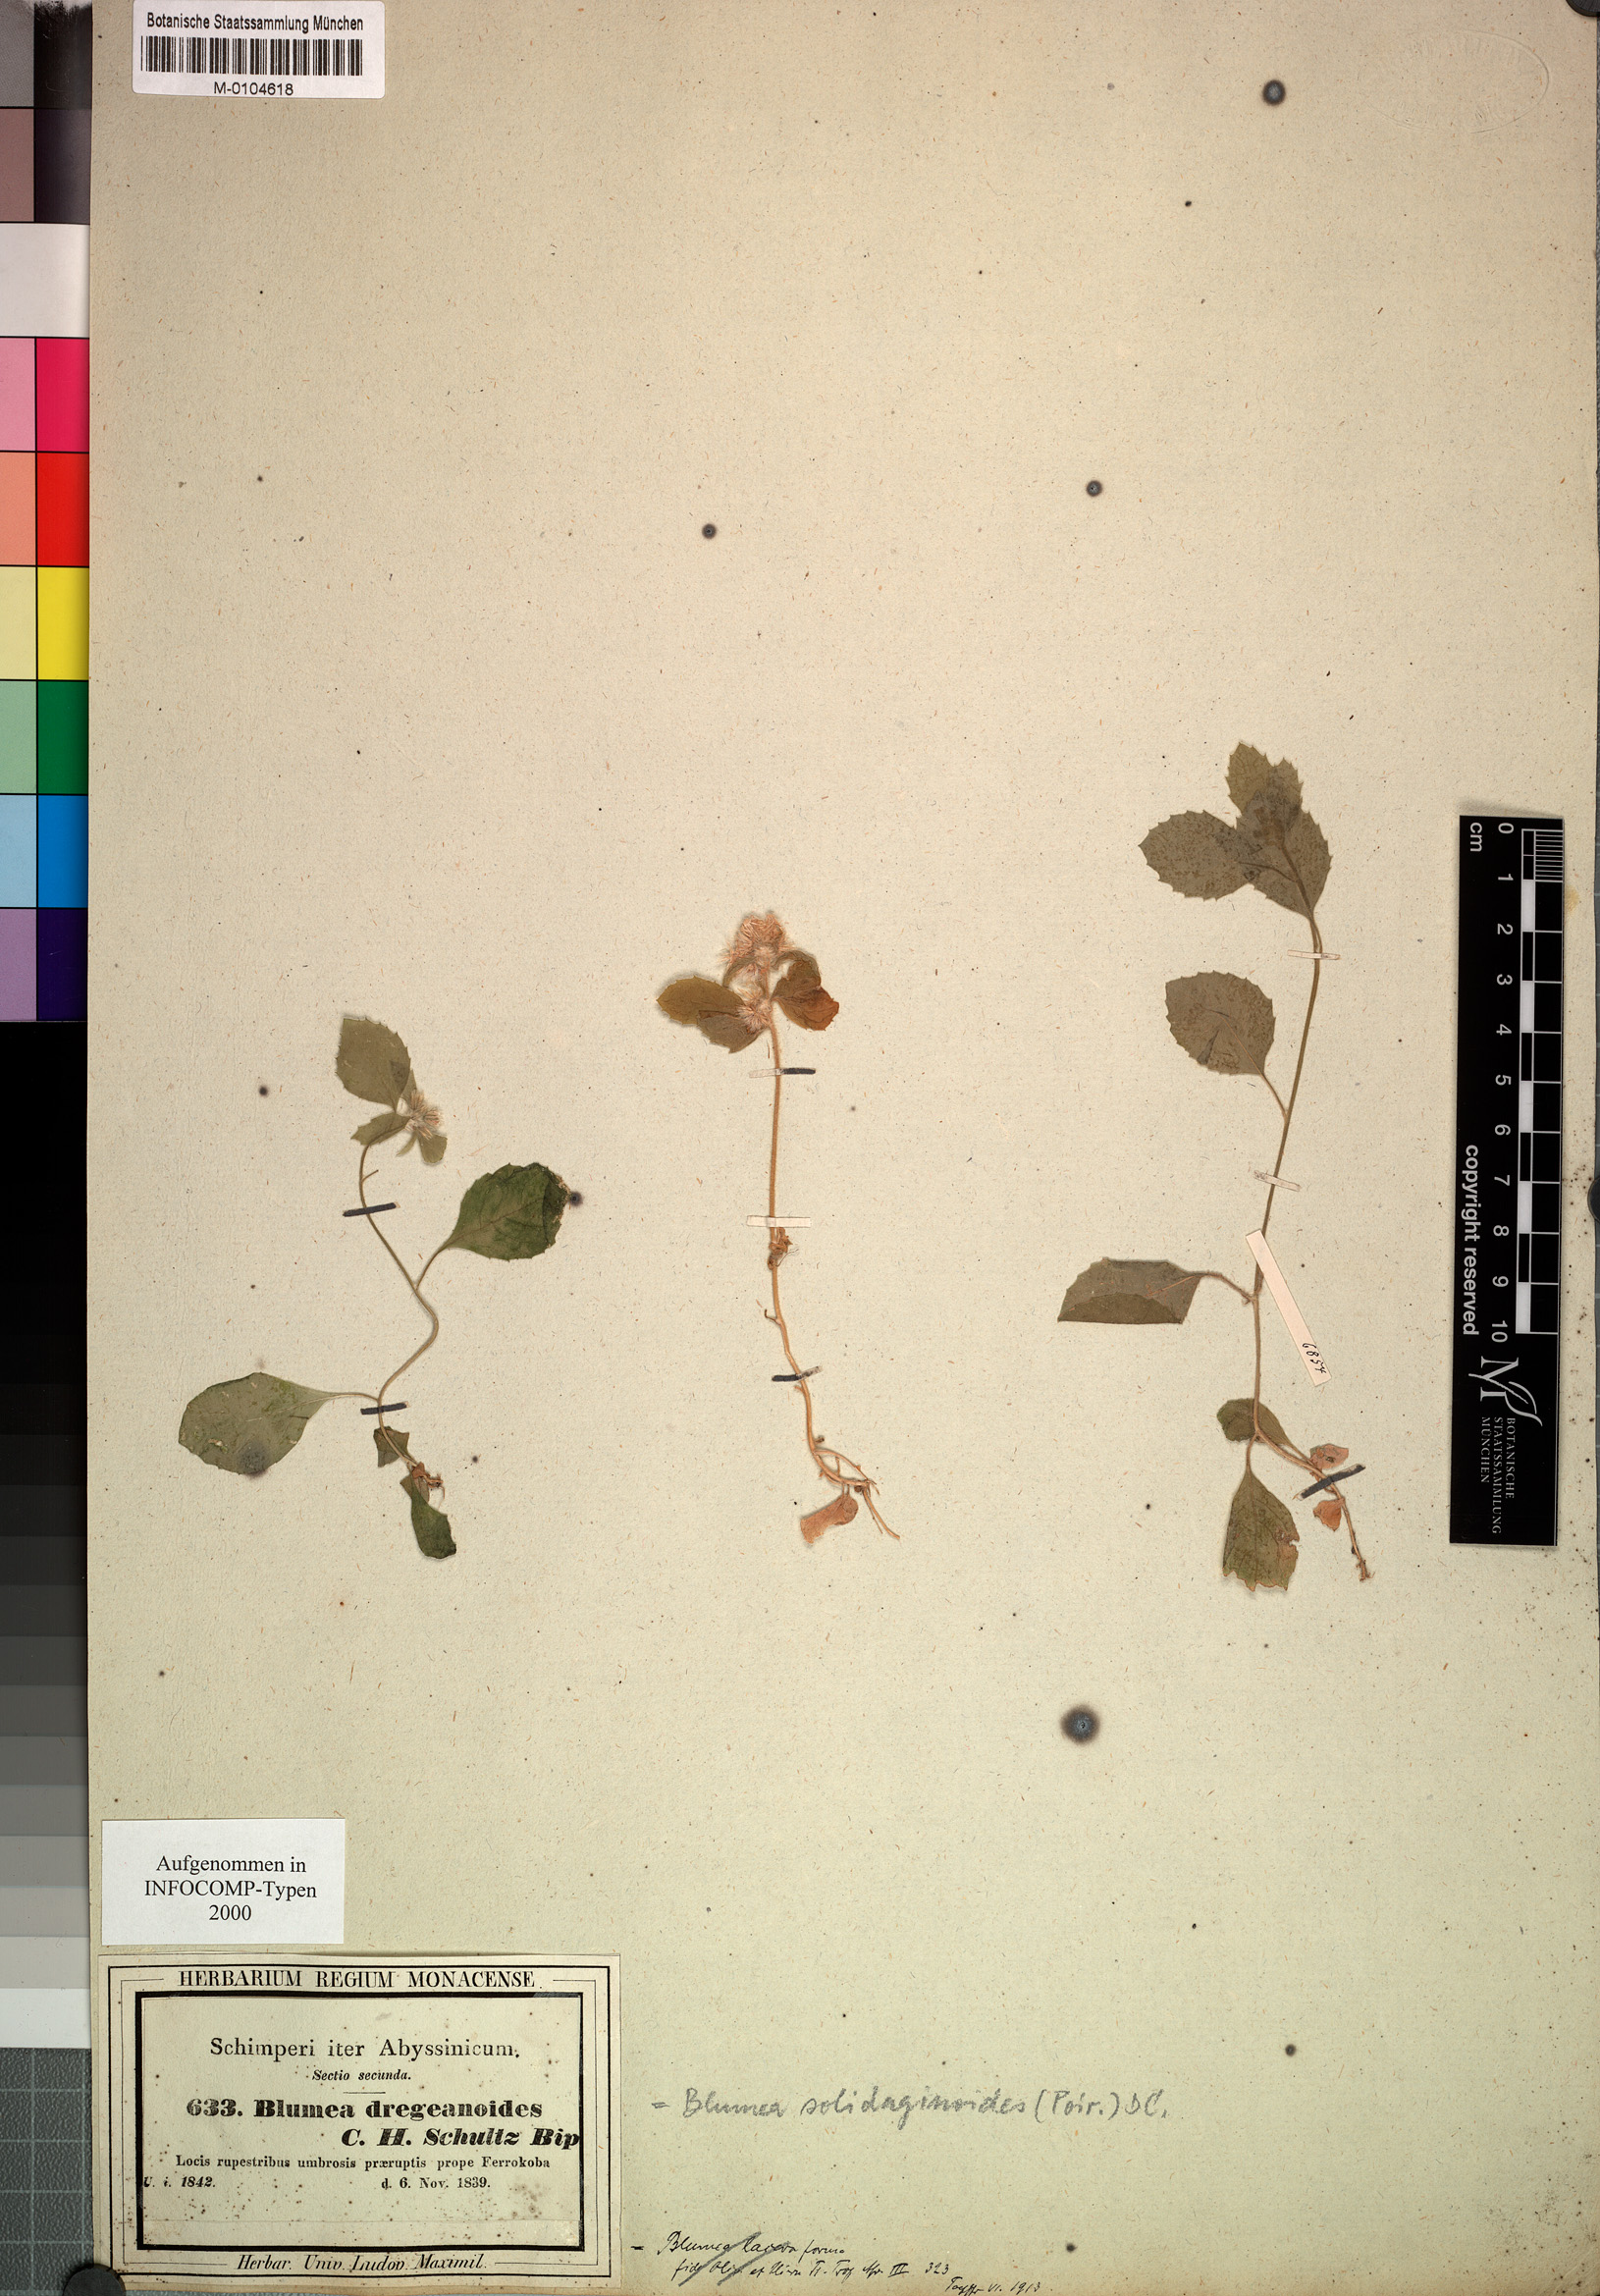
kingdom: Plantae
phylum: Tracheophyta
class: Magnoliopsida
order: Asterales
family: Asteraceae
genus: Blumea
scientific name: Blumea axillaris
